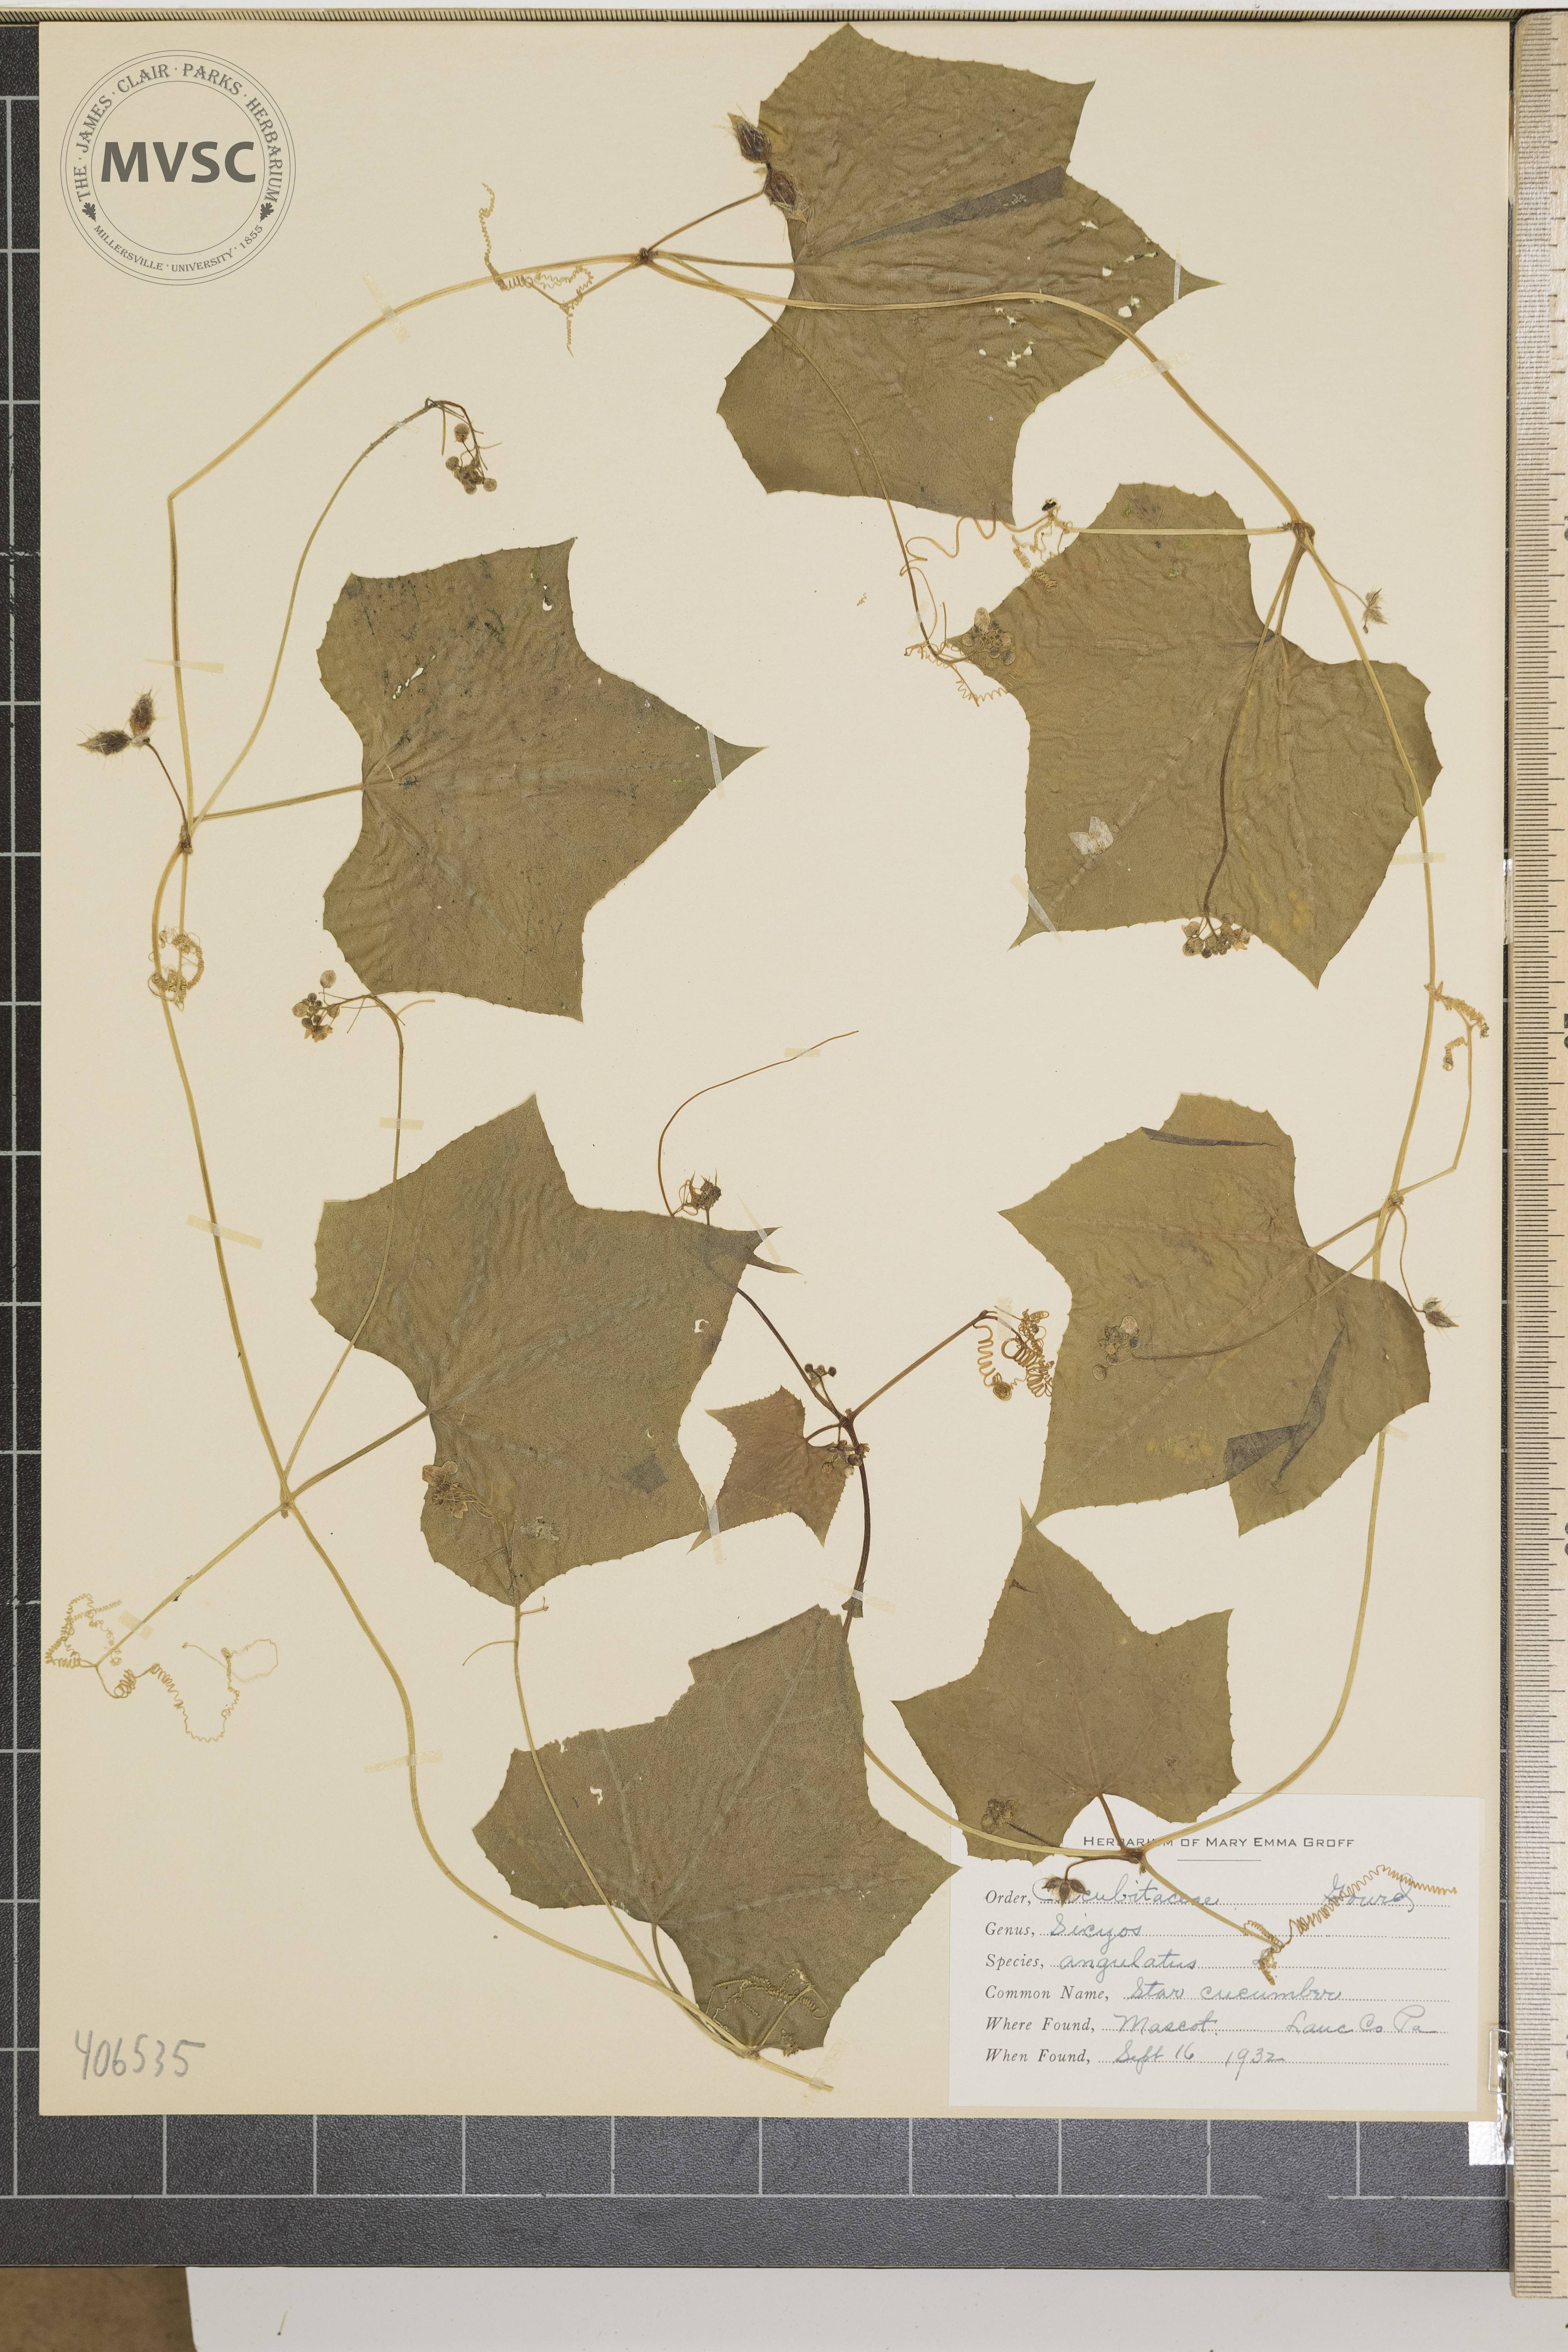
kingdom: Plantae
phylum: Tracheophyta
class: Magnoliopsida
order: Cucurbitales
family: Cucurbitaceae
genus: Sicyos
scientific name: Sicyos angulatus
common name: Star Cucumber
